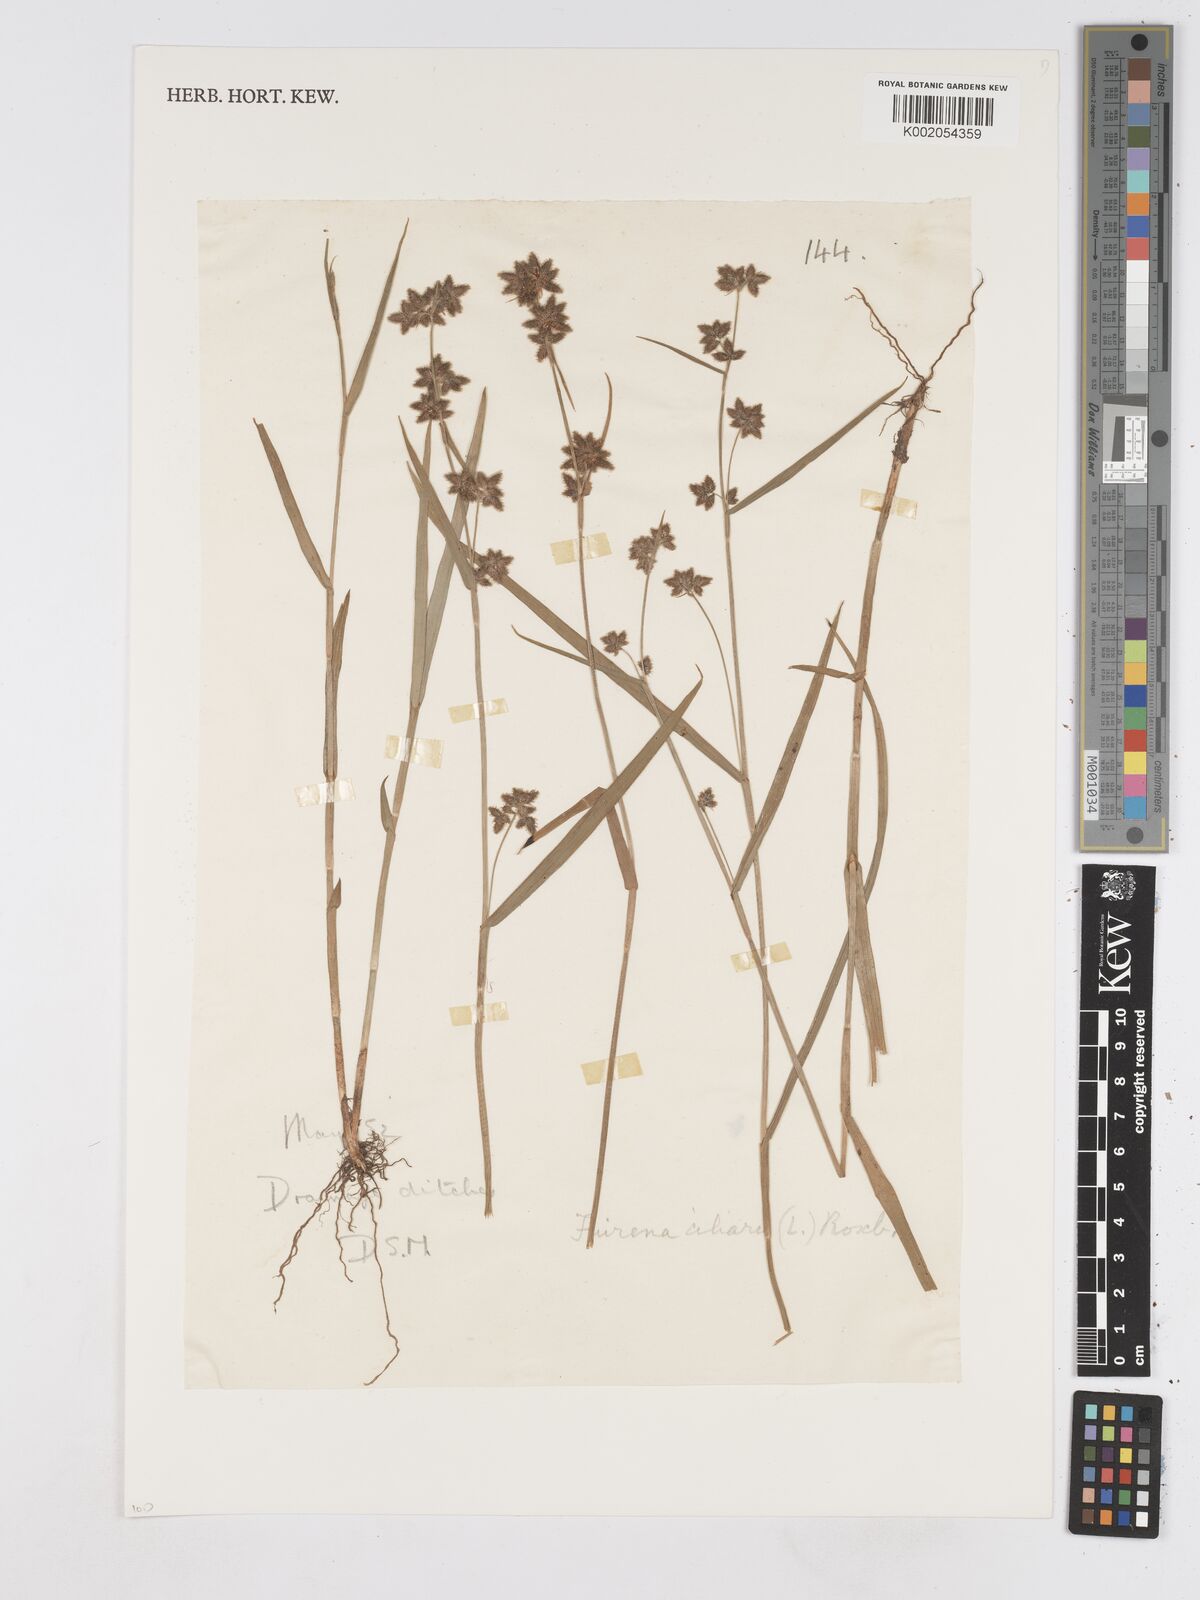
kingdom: Plantae
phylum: Tracheophyta
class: Liliopsida
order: Poales
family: Cyperaceae
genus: Fuirena
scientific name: Fuirena ciliaris
